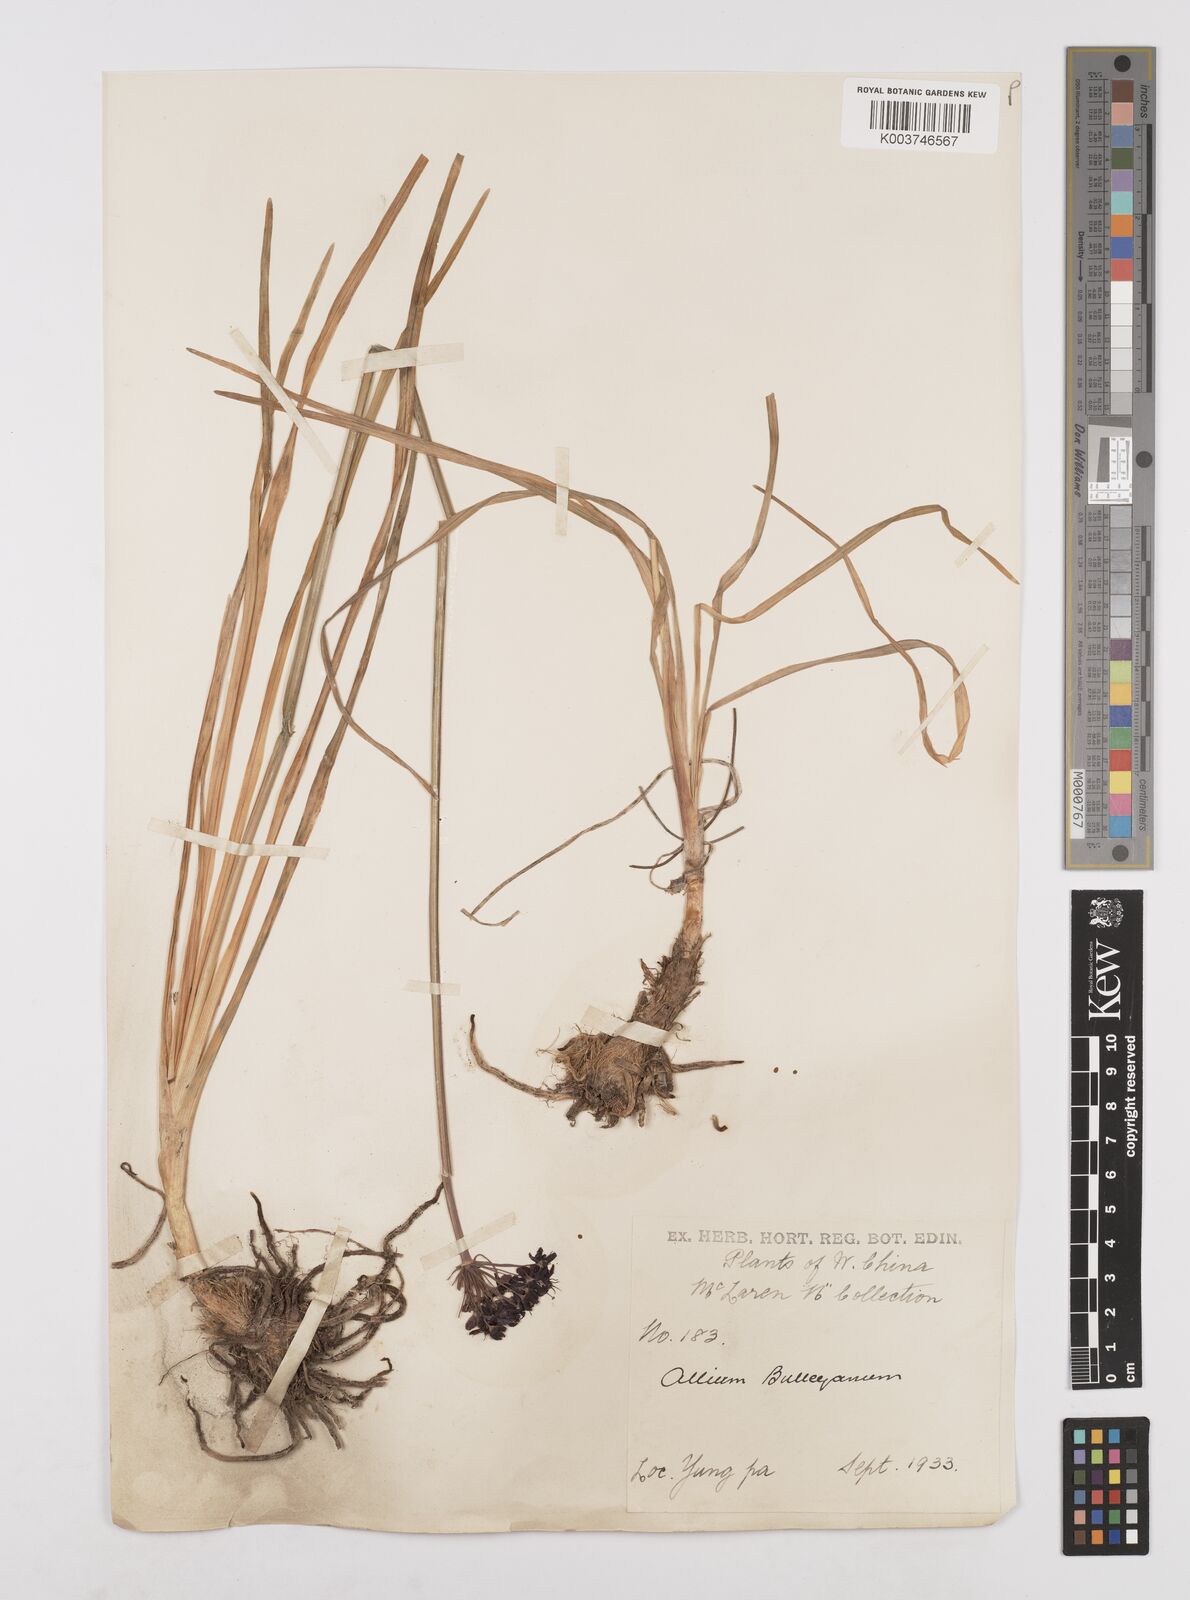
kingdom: Plantae
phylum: Tracheophyta
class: Liliopsida
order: Asparagales
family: Amaryllidaceae
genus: Allium
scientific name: Allium wallichii
